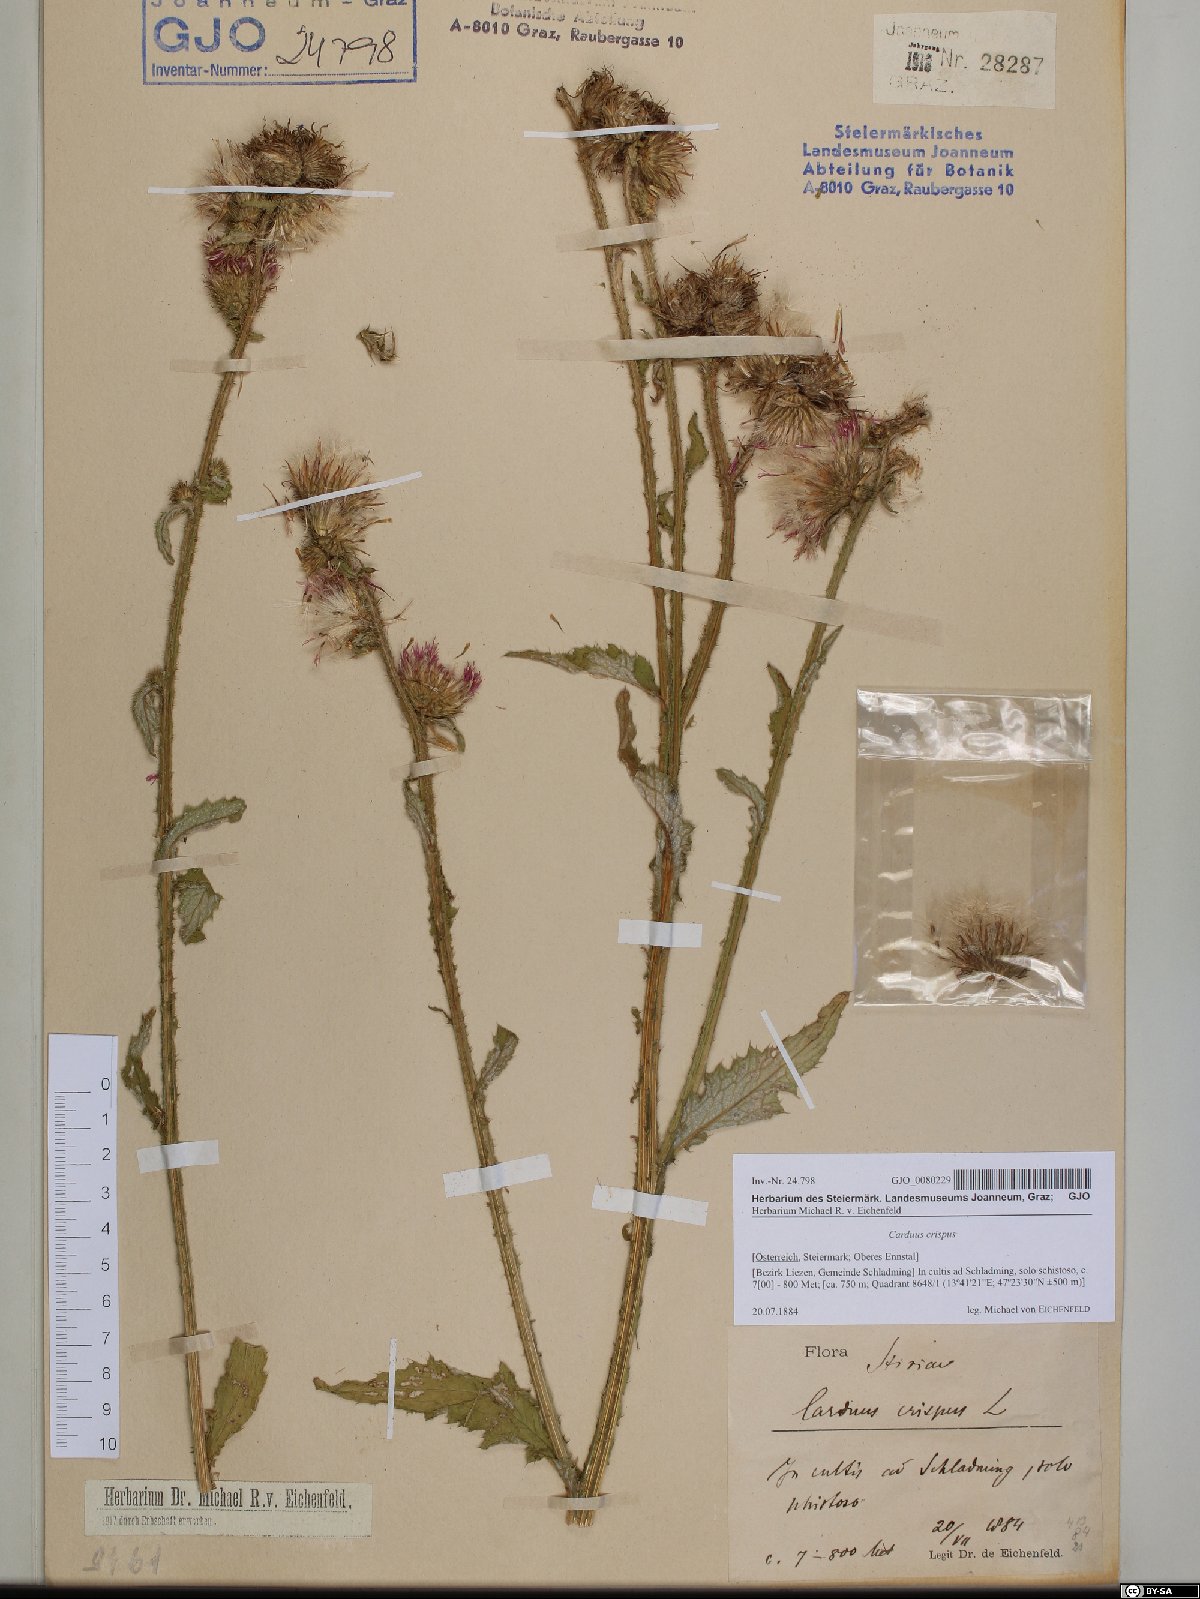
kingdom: Plantae
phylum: Tracheophyta
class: Magnoliopsida
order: Asterales
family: Asteraceae
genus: Carduus
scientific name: Carduus crispus
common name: Welted thistle
